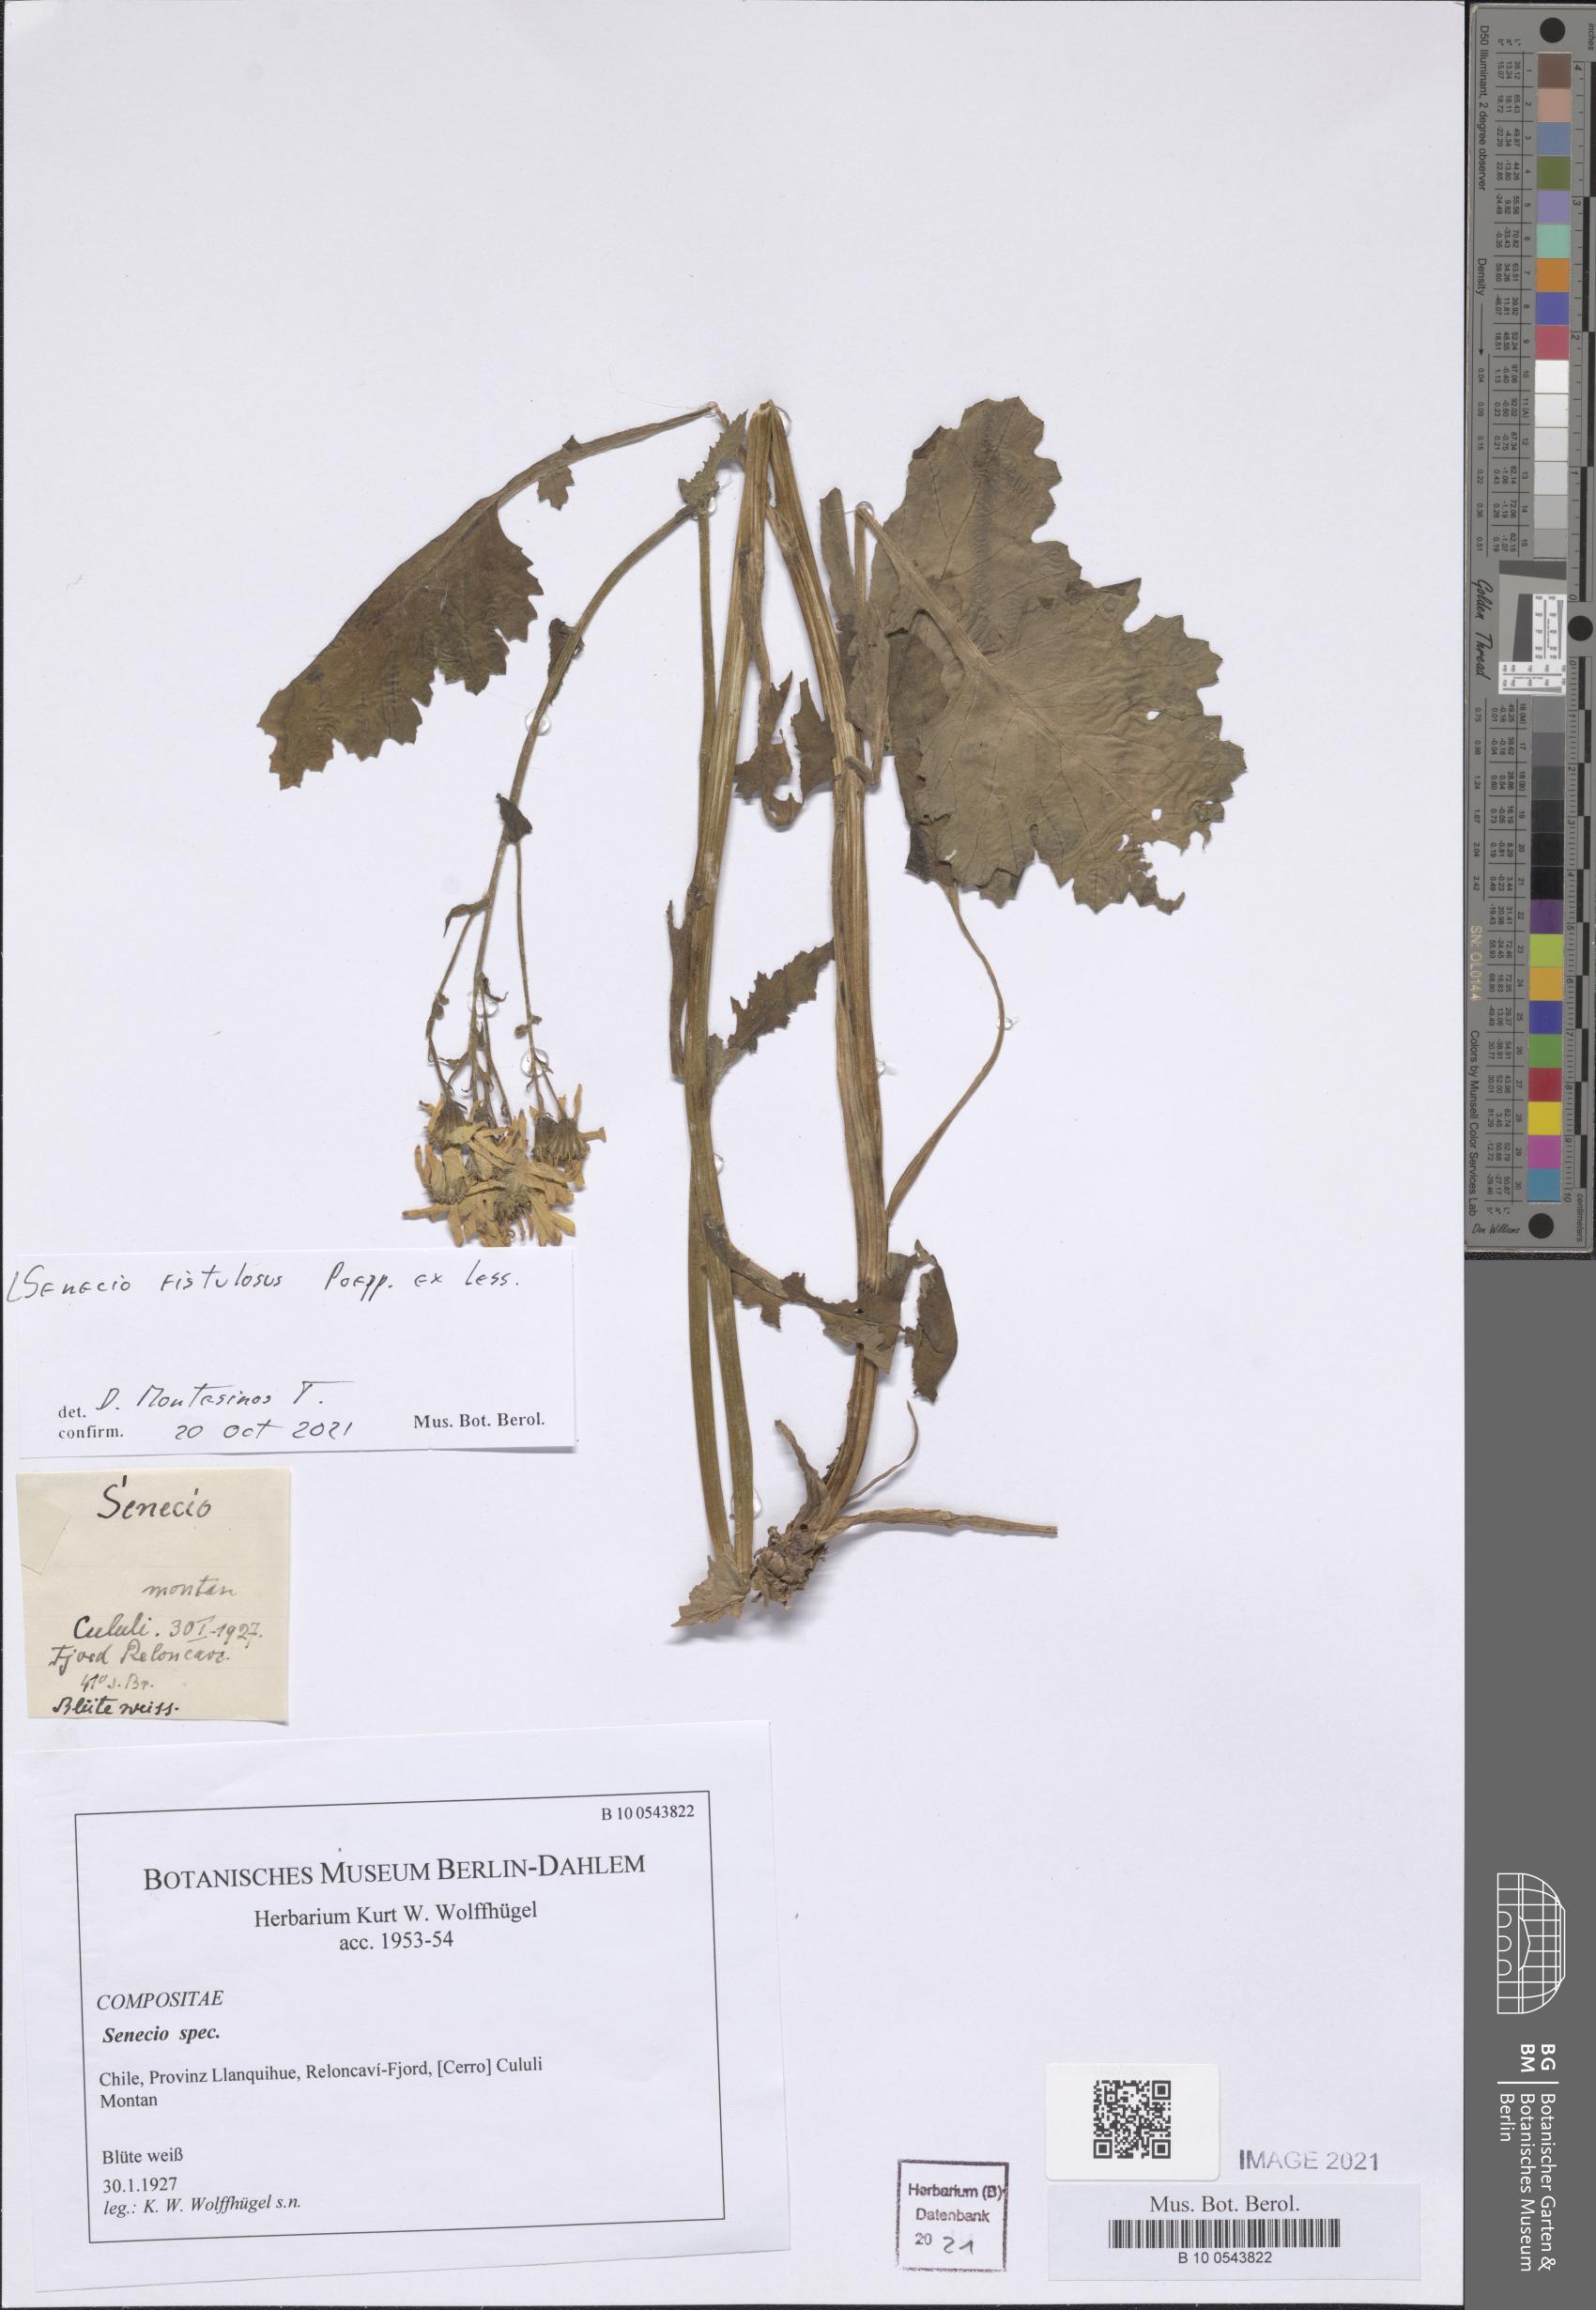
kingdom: Plantae
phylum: Tracheophyta
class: Magnoliopsida
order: Asterales
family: Asteraceae
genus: Senecio
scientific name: Senecio fistulosus
